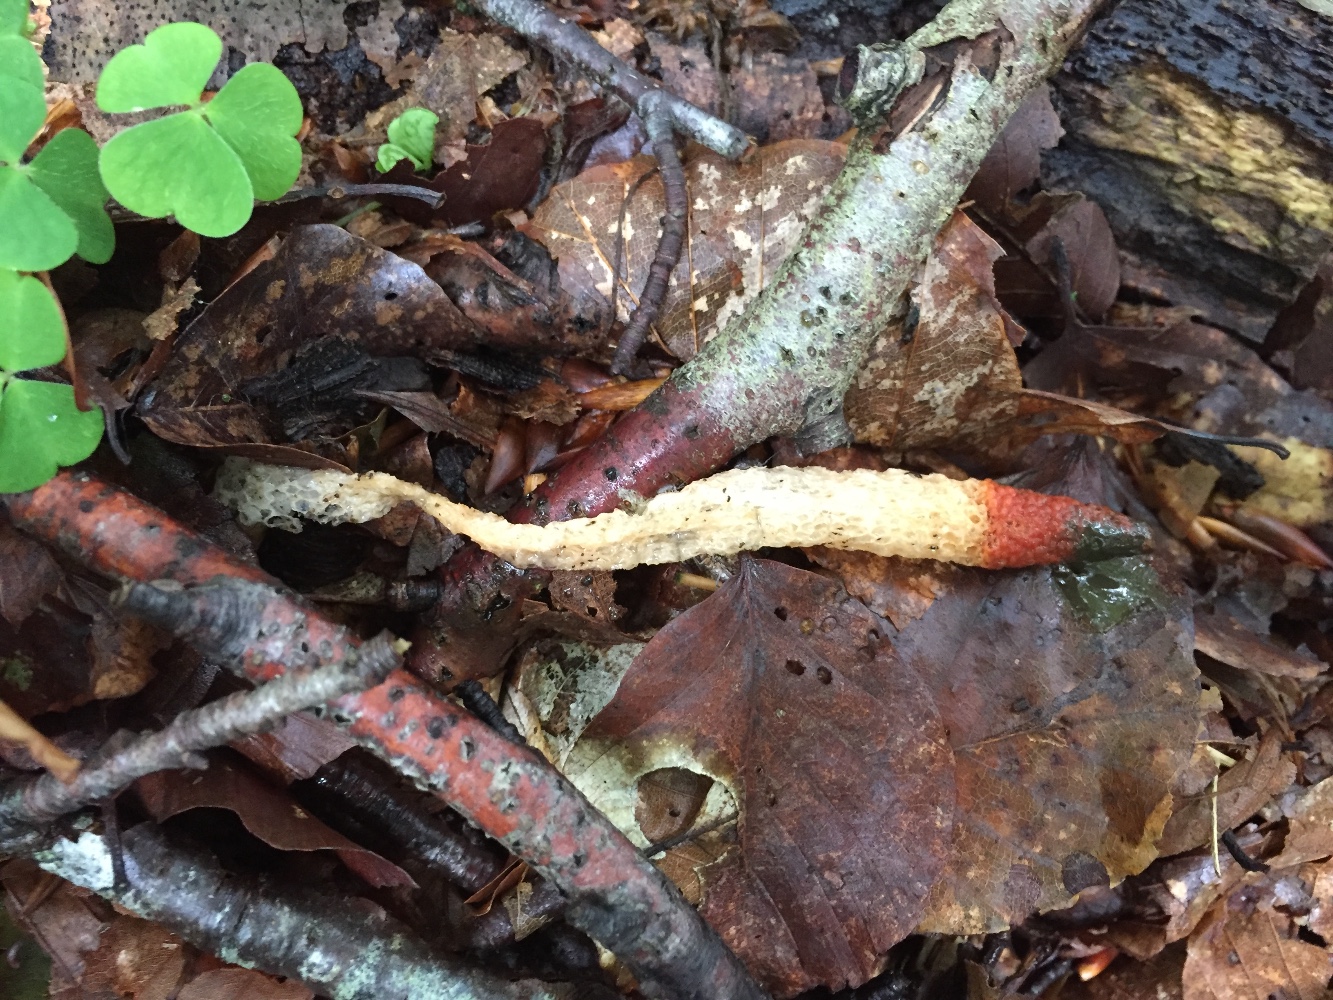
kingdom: Fungi
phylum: Basidiomycota
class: Agaricomycetes
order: Phallales
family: Phallaceae
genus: Mutinus
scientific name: Mutinus caninus
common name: hunde-stinksvamp
